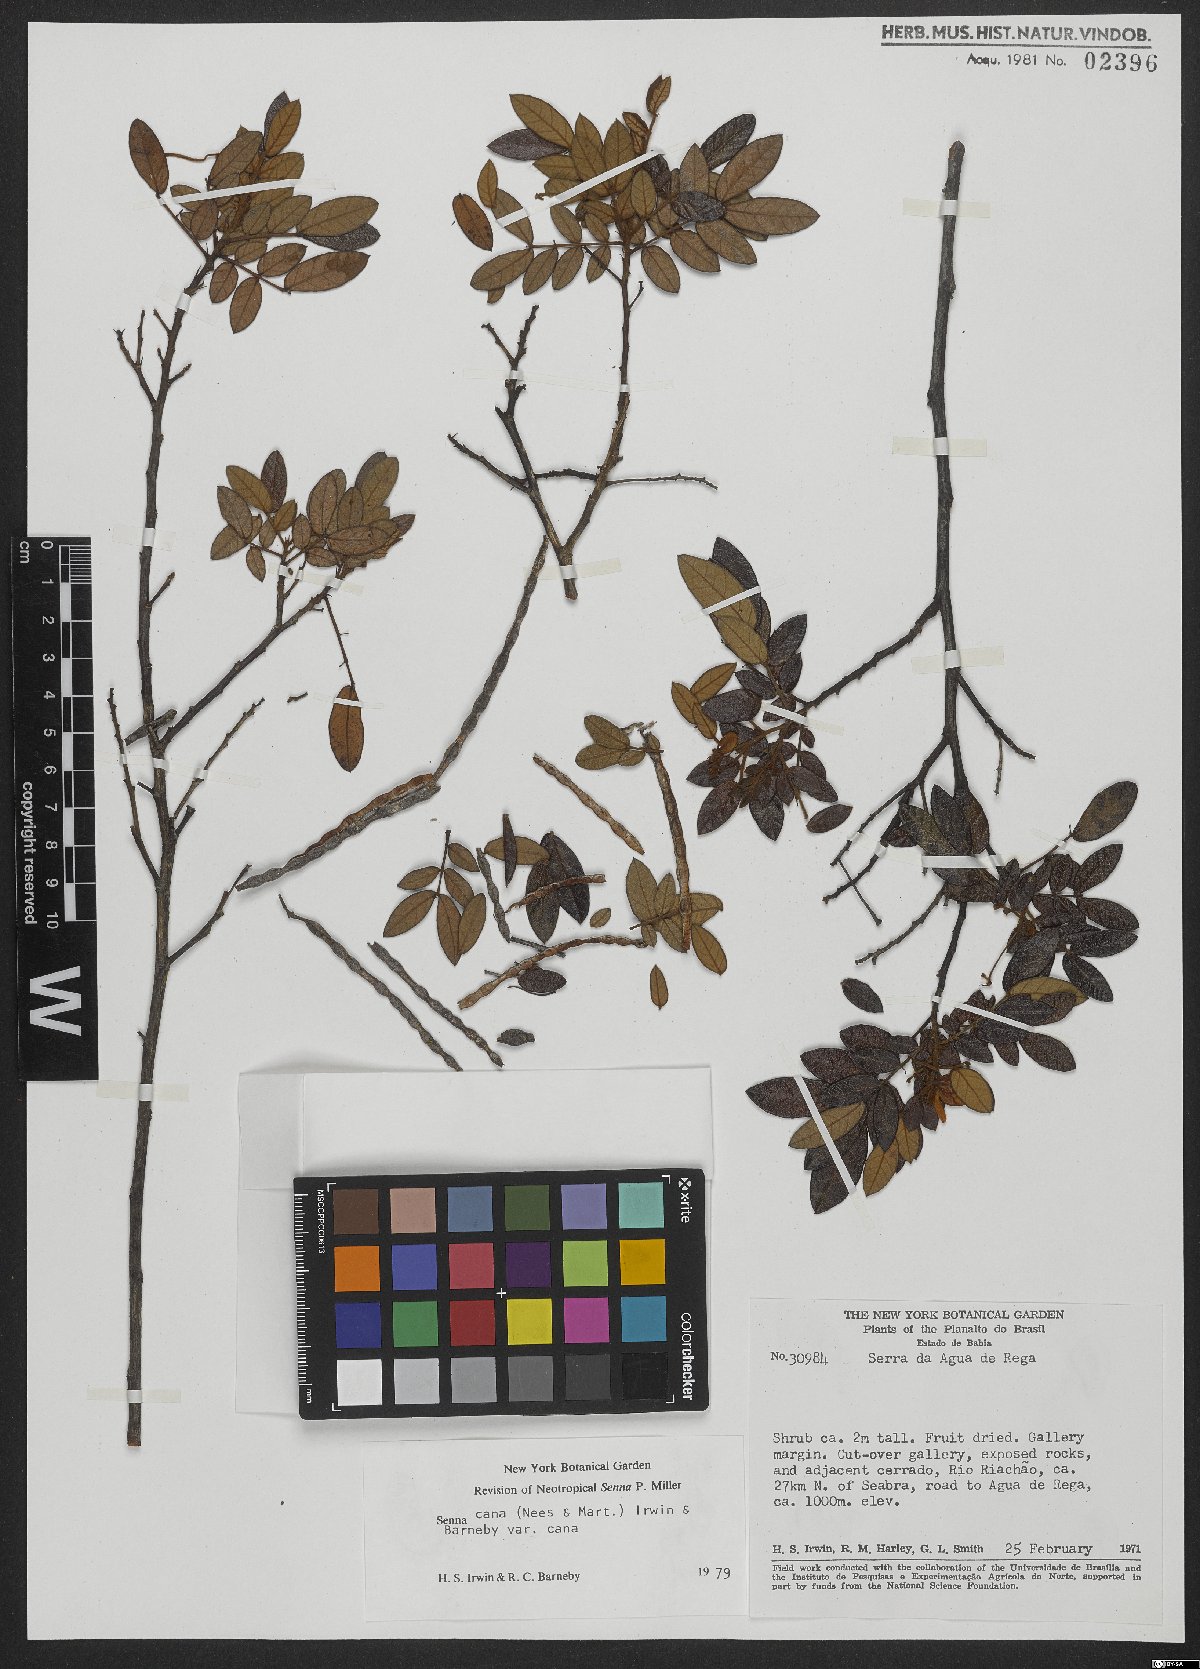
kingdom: Plantae
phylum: Tracheophyta
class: Magnoliopsida
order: Fabales
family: Fabaceae
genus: Senna
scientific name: Senna cana
